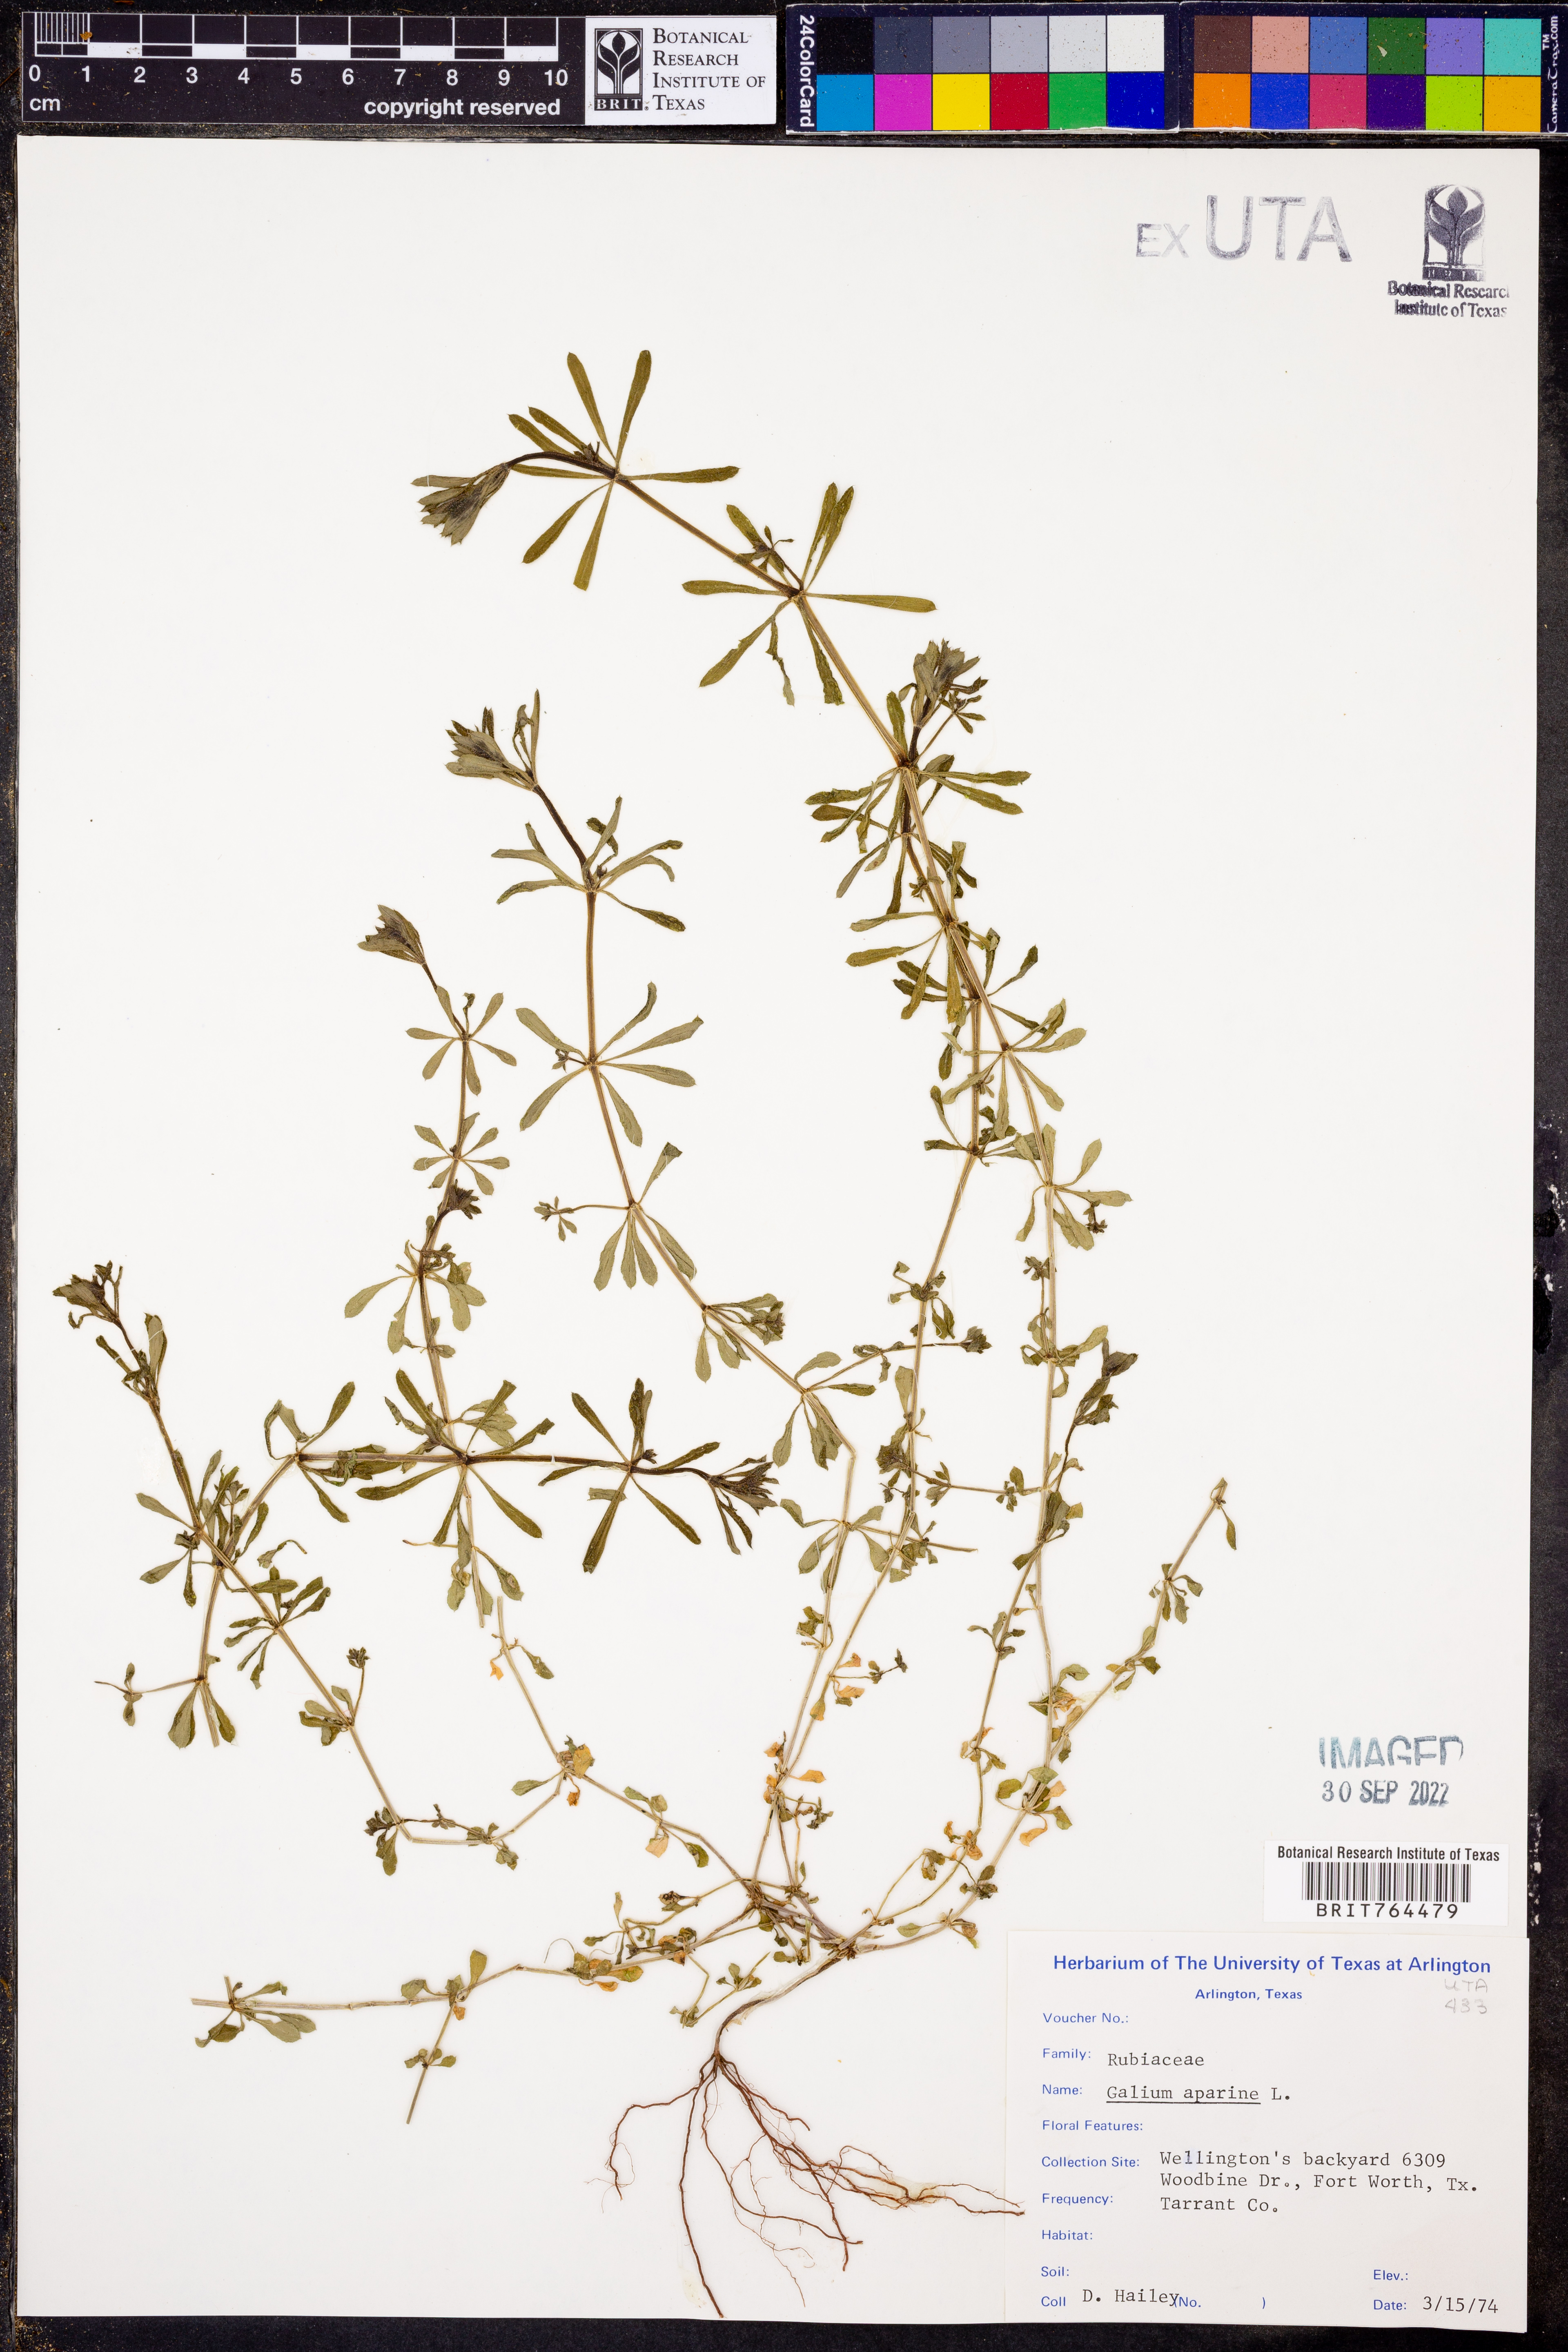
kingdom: Plantae
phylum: Tracheophyta
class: Magnoliopsida
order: Gentianales
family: Rubiaceae
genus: Galium
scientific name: Galium aparine
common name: Cleavers
